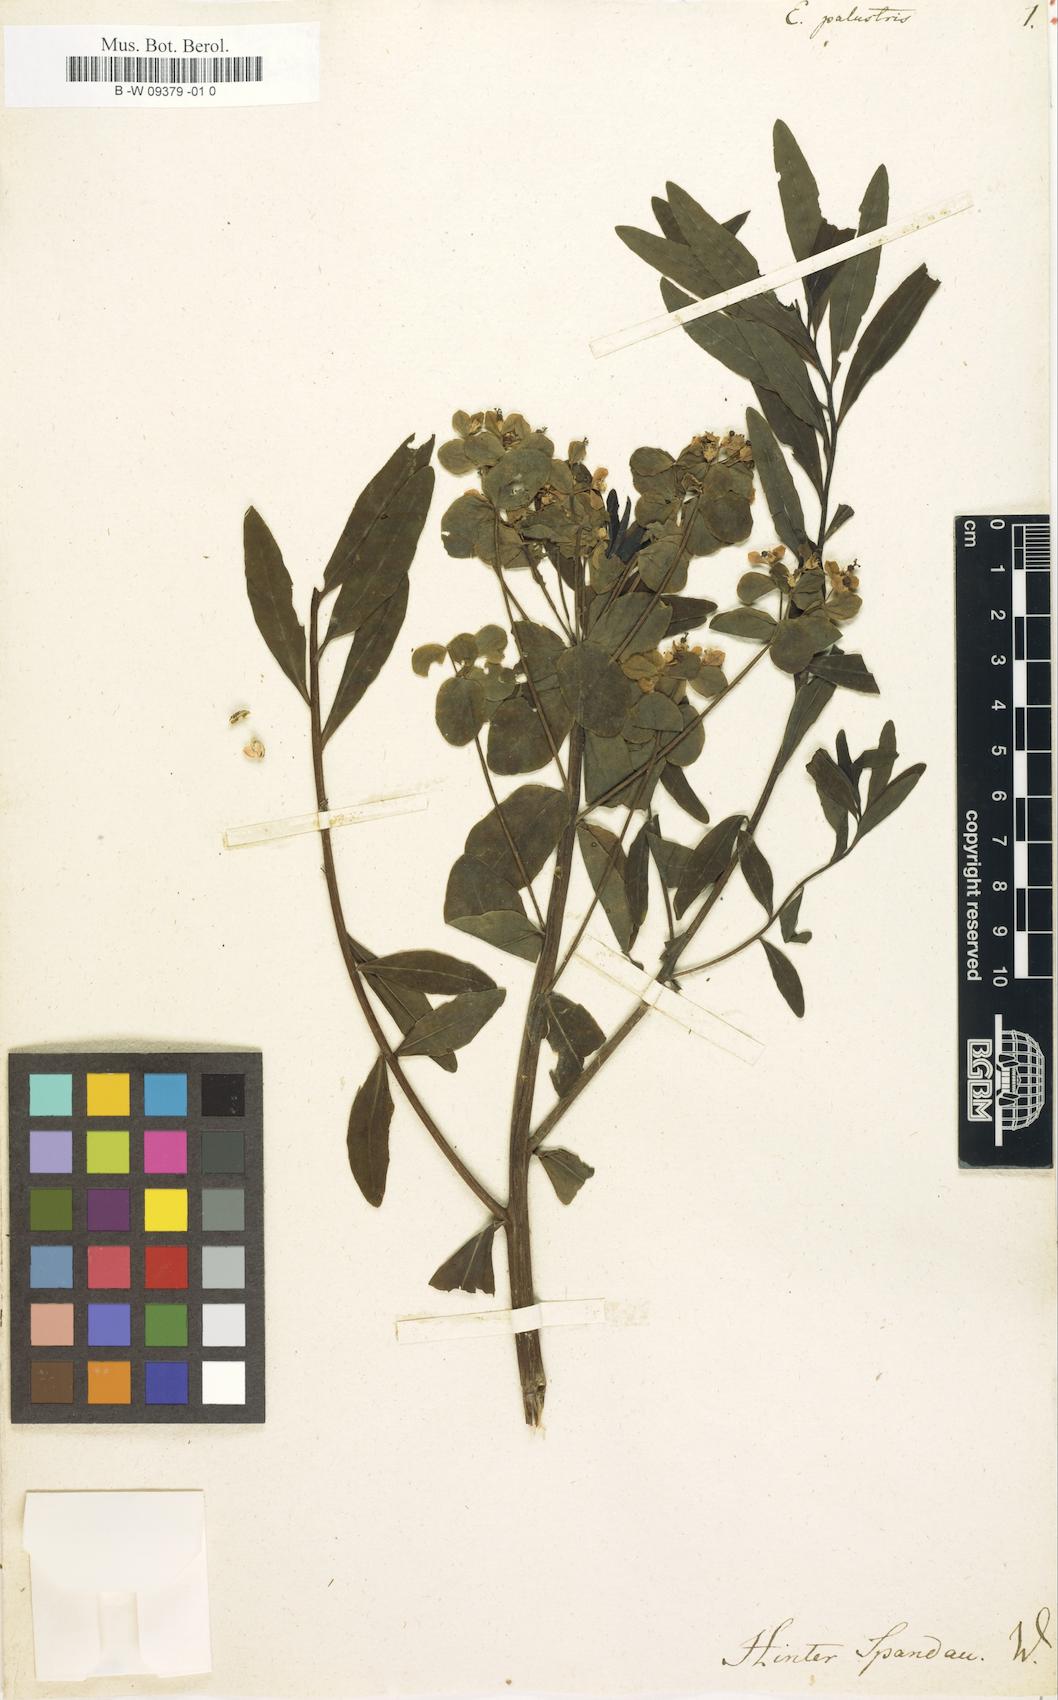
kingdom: Plantae
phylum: Tracheophyta
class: Magnoliopsida
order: Malpighiales
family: Euphorbiaceae
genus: Euphorbia
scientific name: Euphorbia palustris
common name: Marsh spurge
